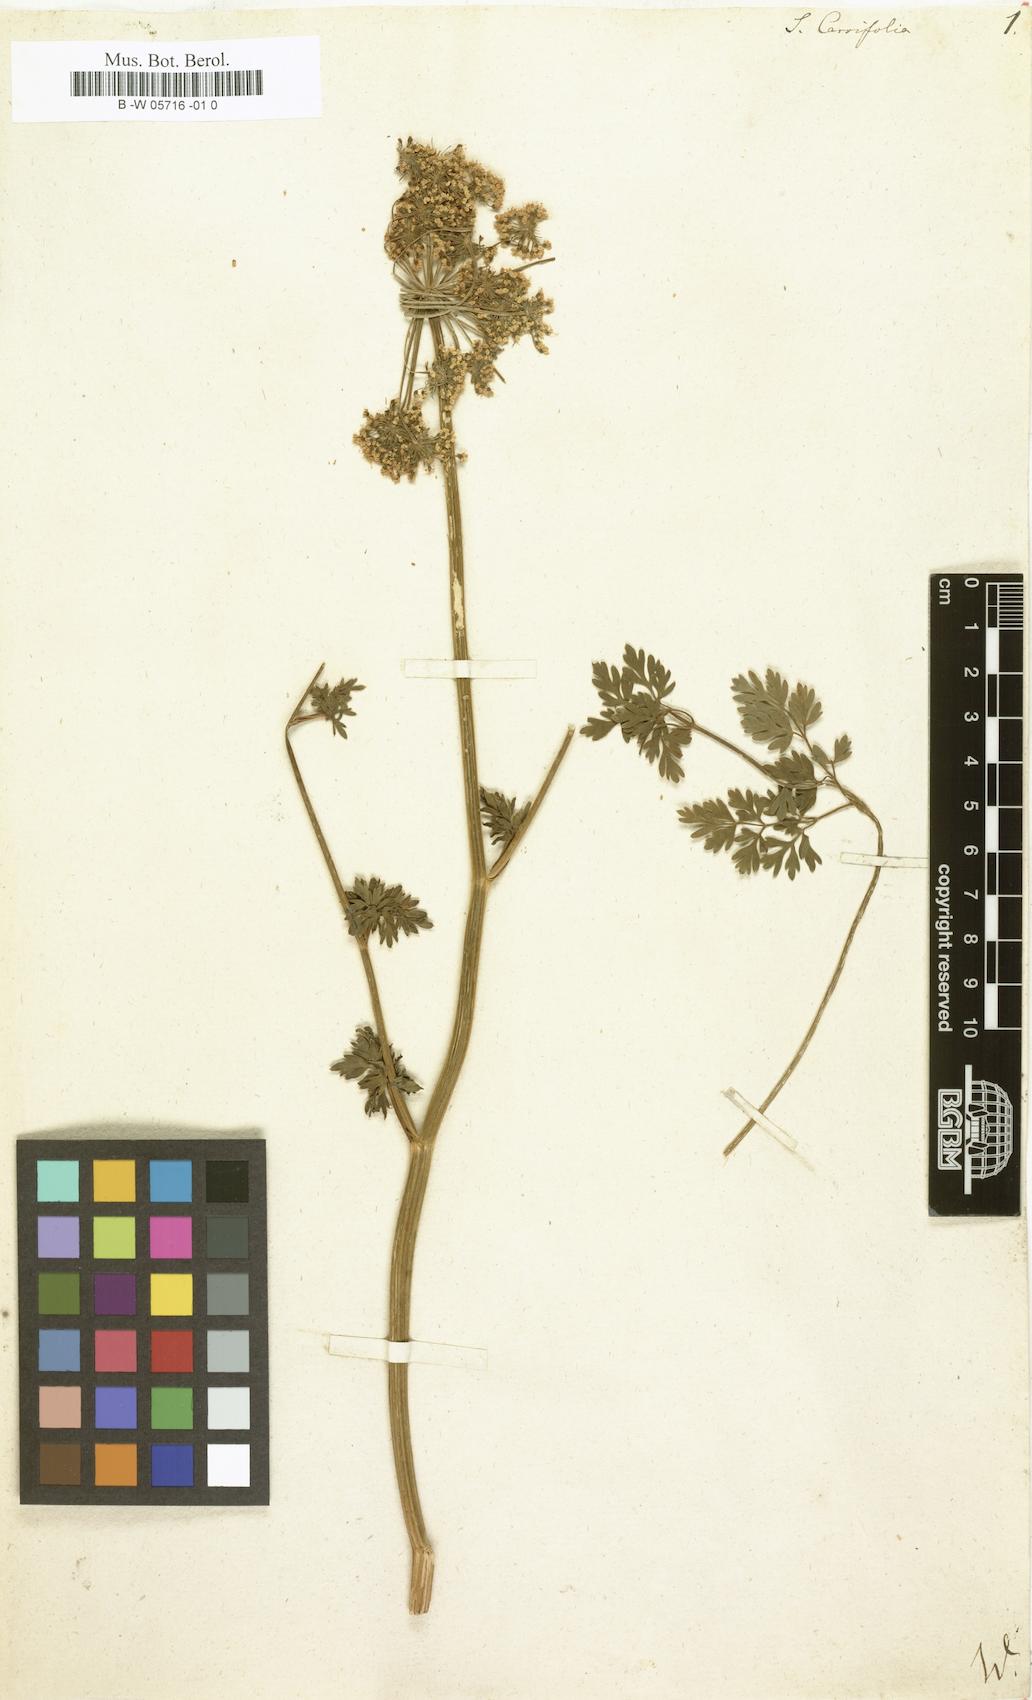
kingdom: Plantae
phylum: Tracheophyta
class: Magnoliopsida
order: Apiales
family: Apiaceae
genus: Selinum
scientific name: Selinum carvifolia
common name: Cambridge milk-parsley
